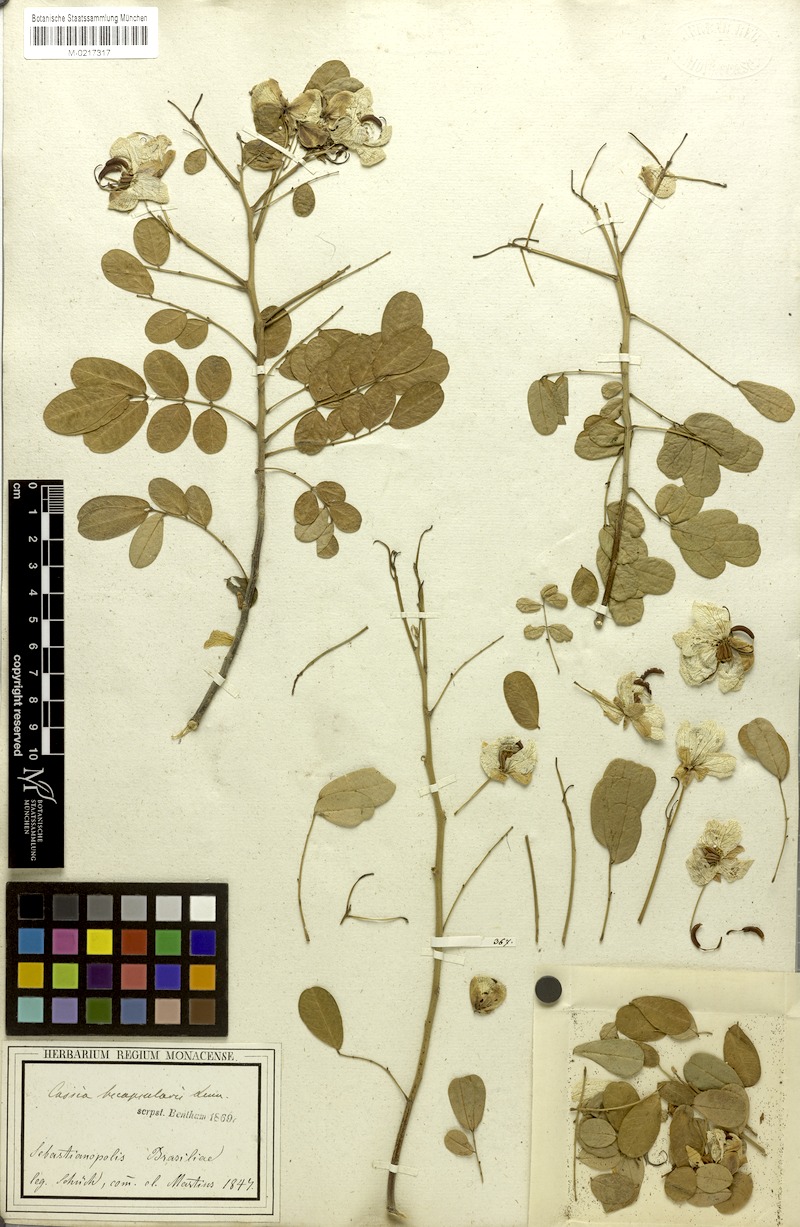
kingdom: Plantae
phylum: Tracheophyta
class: Magnoliopsida
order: Fabales
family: Fabaceae
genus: Senna
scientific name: Senna bicapsularis
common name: Christmasbush
